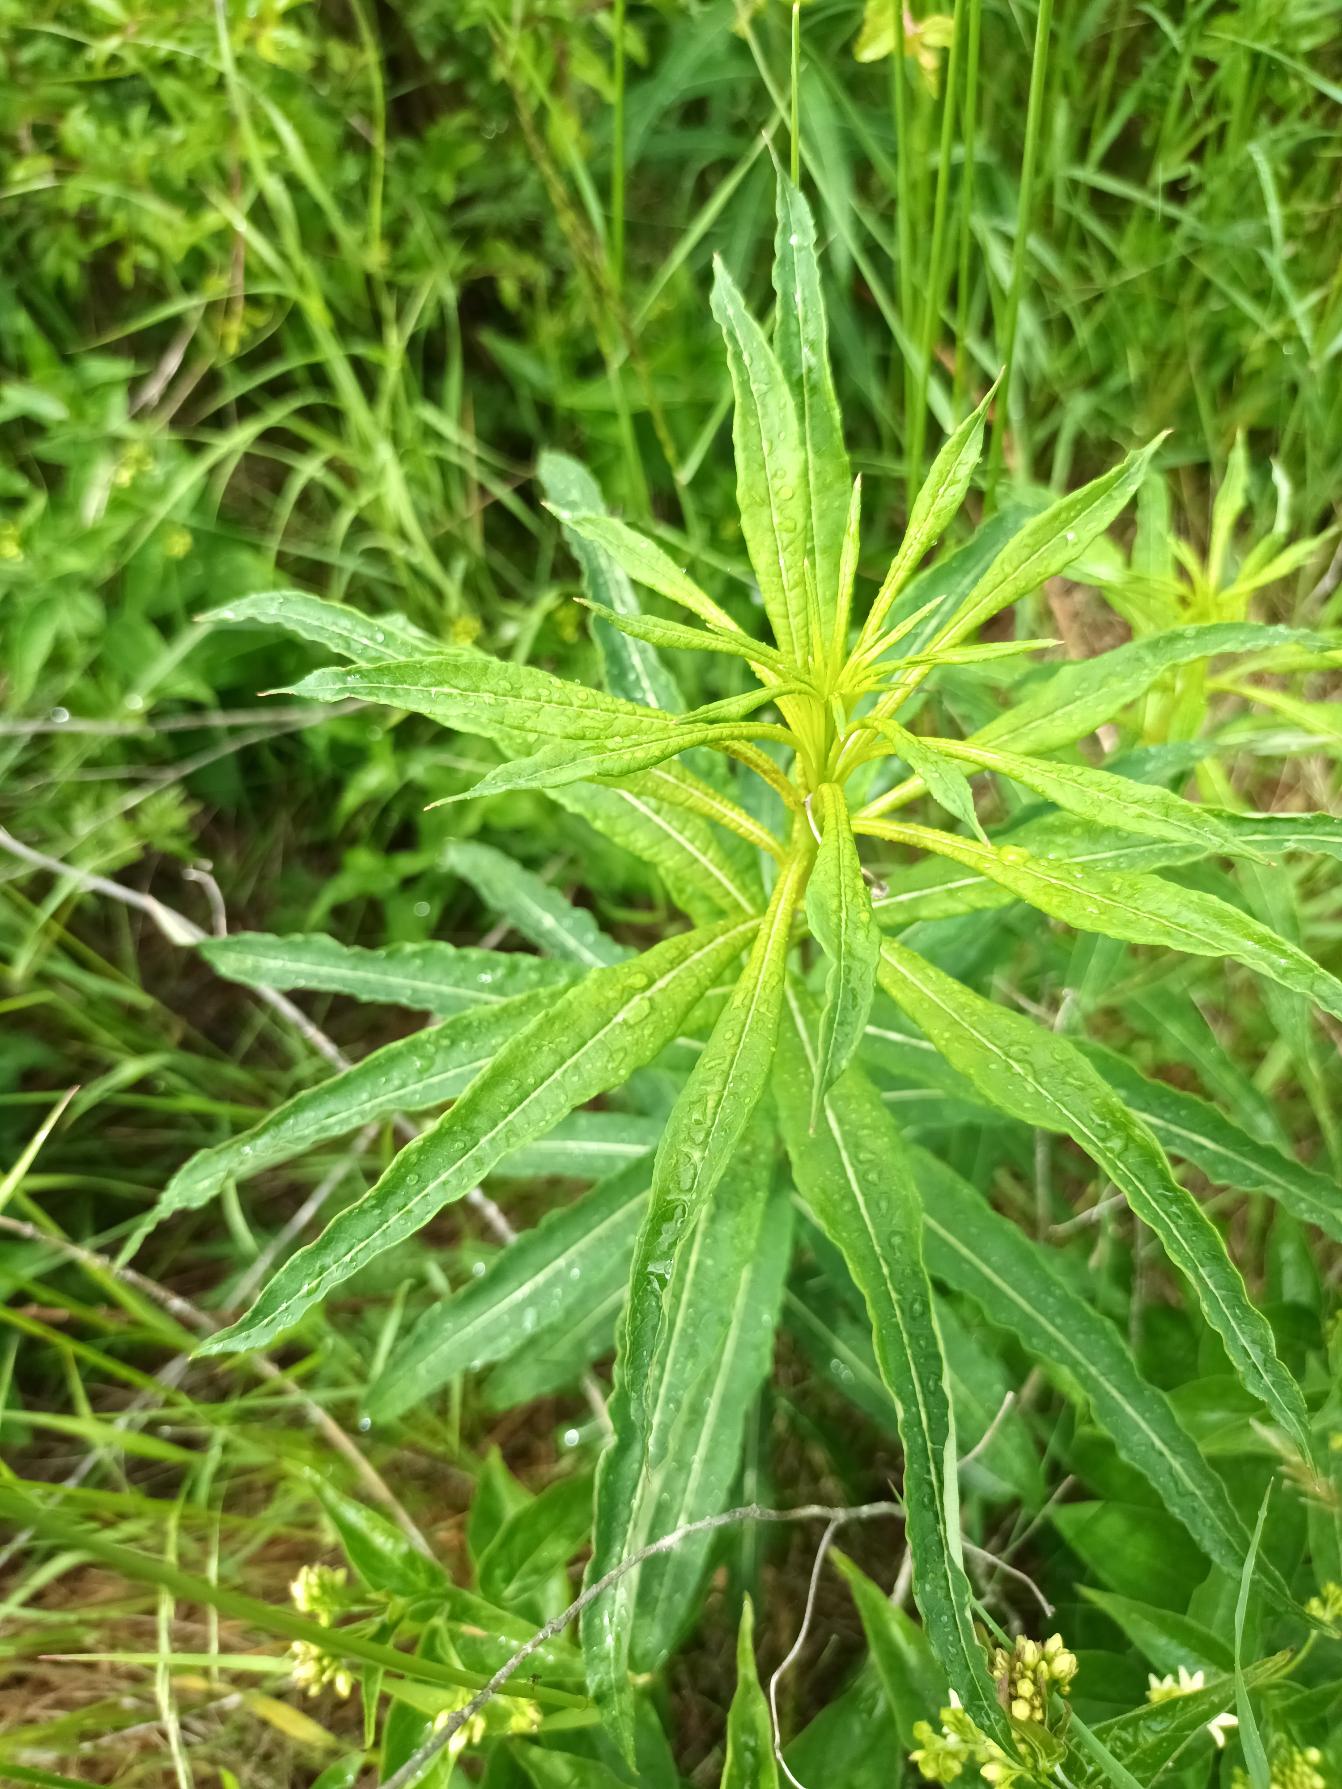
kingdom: Plantae
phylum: Tracheophyta
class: Magnoliopsida
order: Myrtales
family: Onagraceae
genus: Chamaenerion
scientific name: Chamaenerion angustifolium
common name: Gederams
